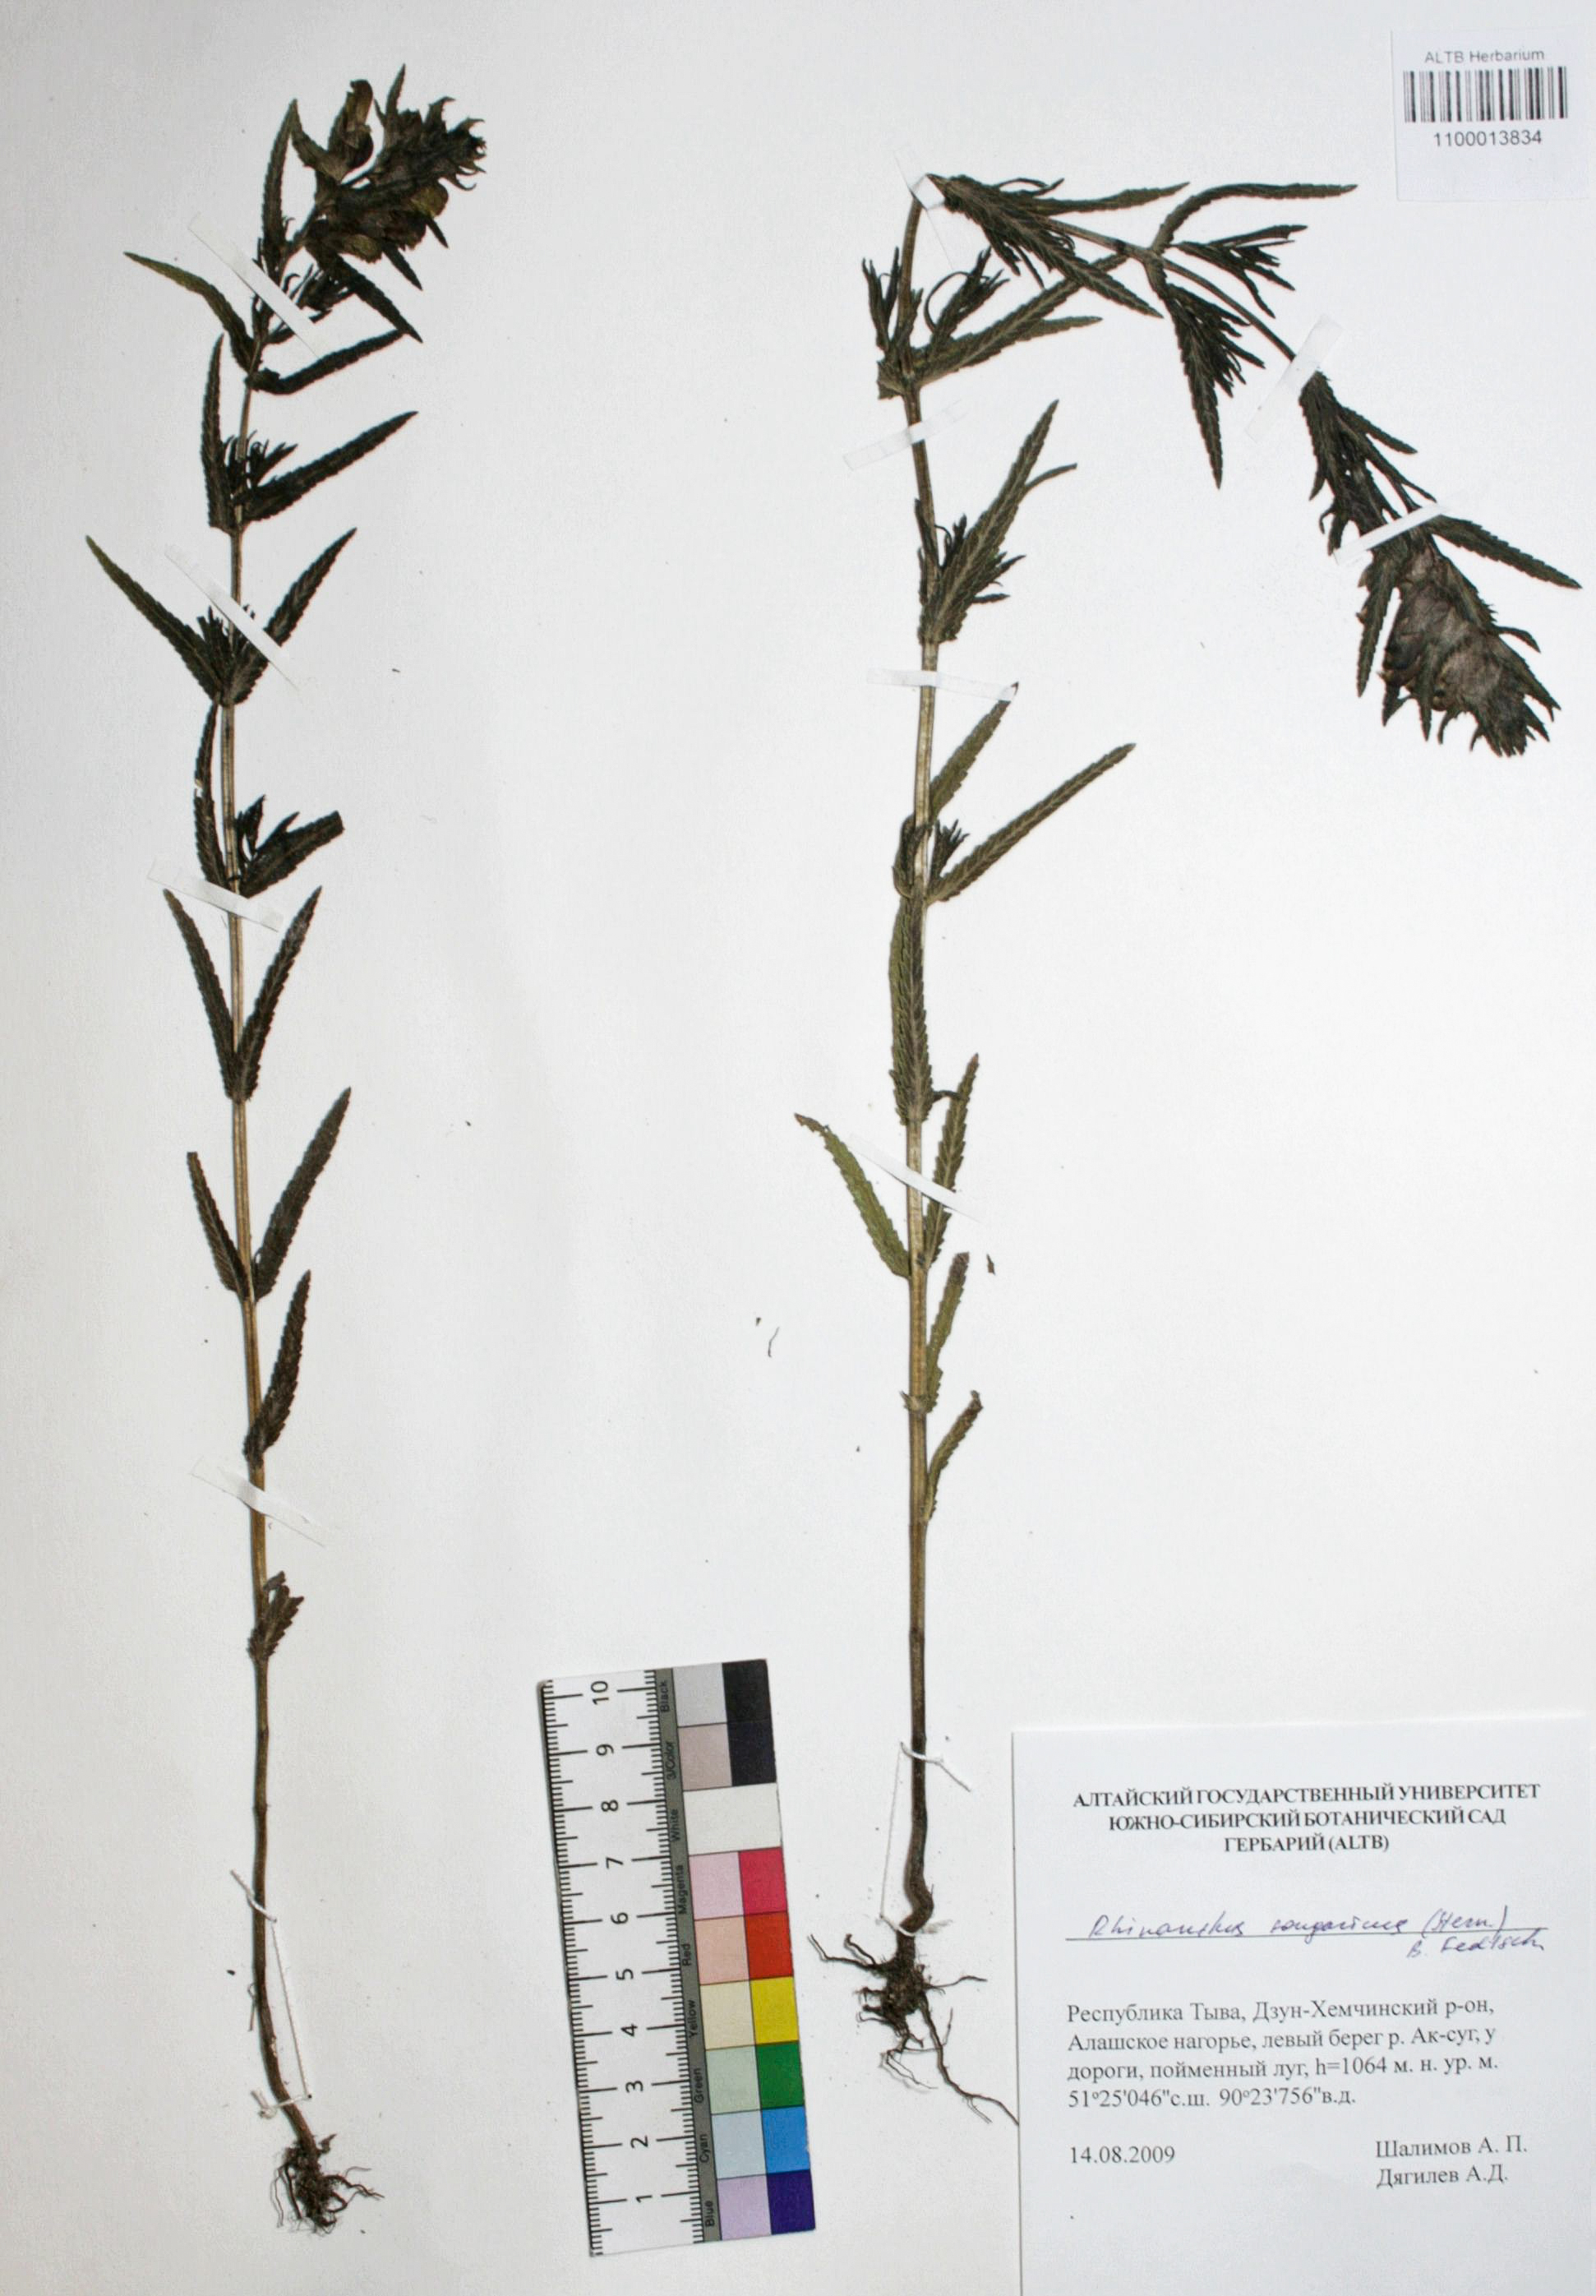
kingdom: Plantae
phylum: Tracheophyta
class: Magnoliopsida
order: Lamiales
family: Orobanchaceae
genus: Rhinanthus
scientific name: Rhinanthus songaricus
